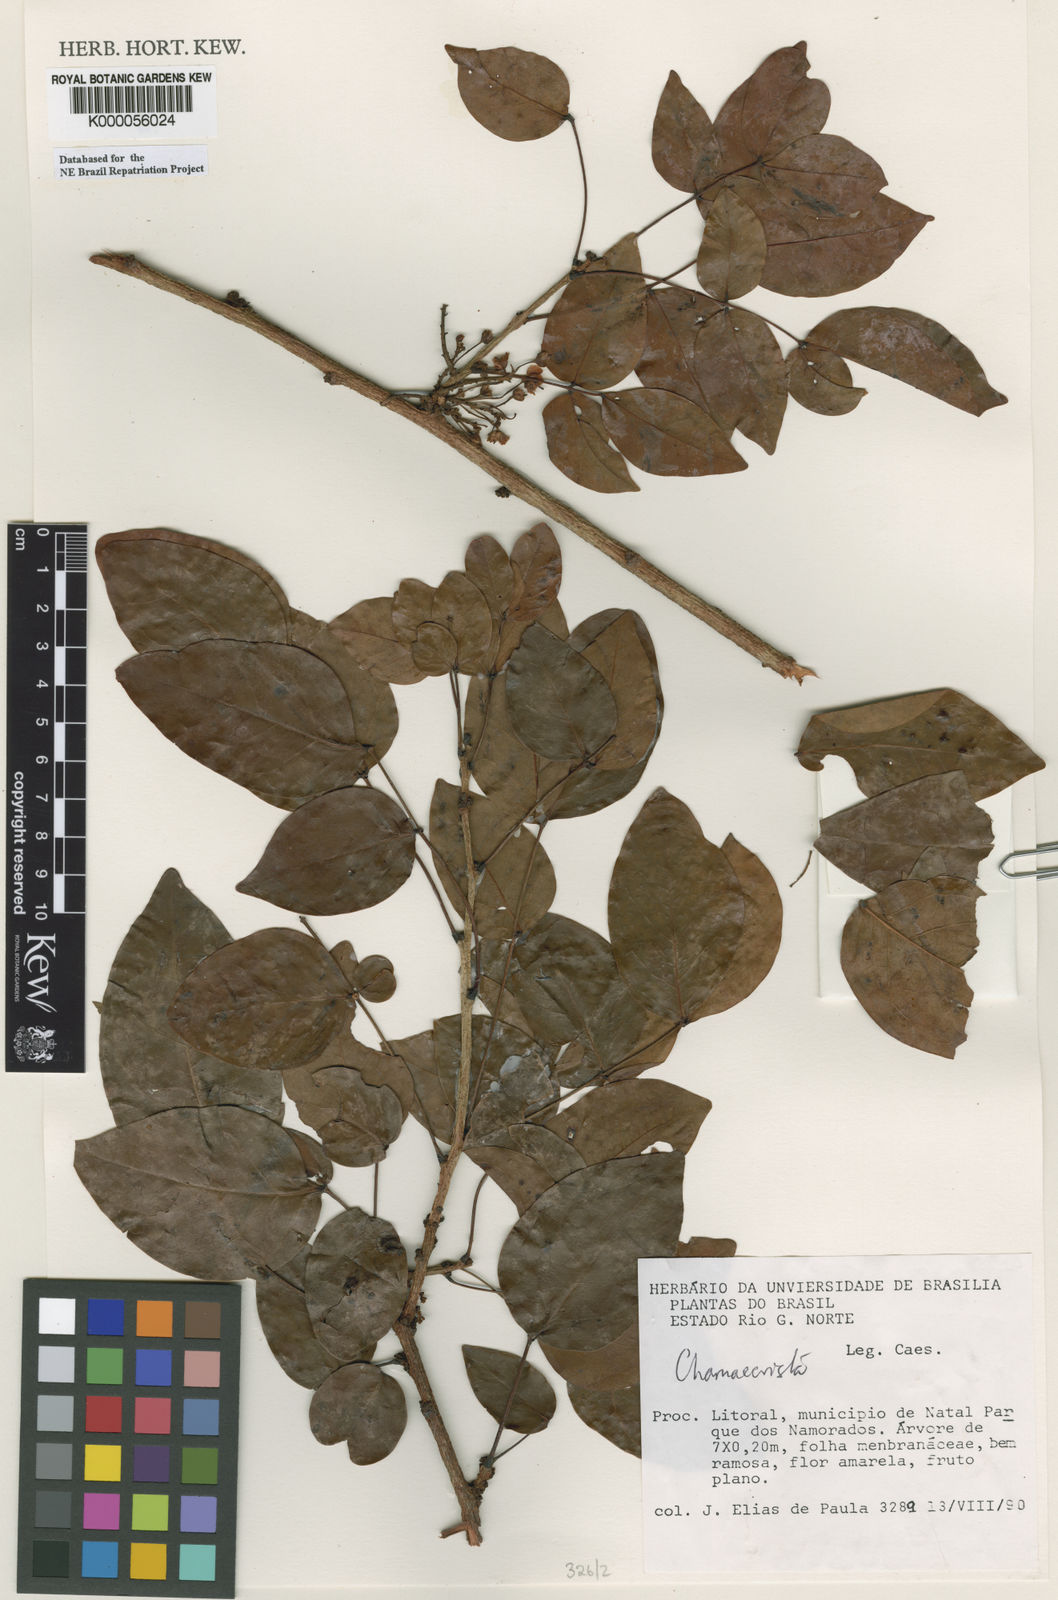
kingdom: Plantae
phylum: Tracheophyta
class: Magnoliopsida
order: Fabales
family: Fabaceae
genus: Chamaecrista
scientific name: Chamaecrista
